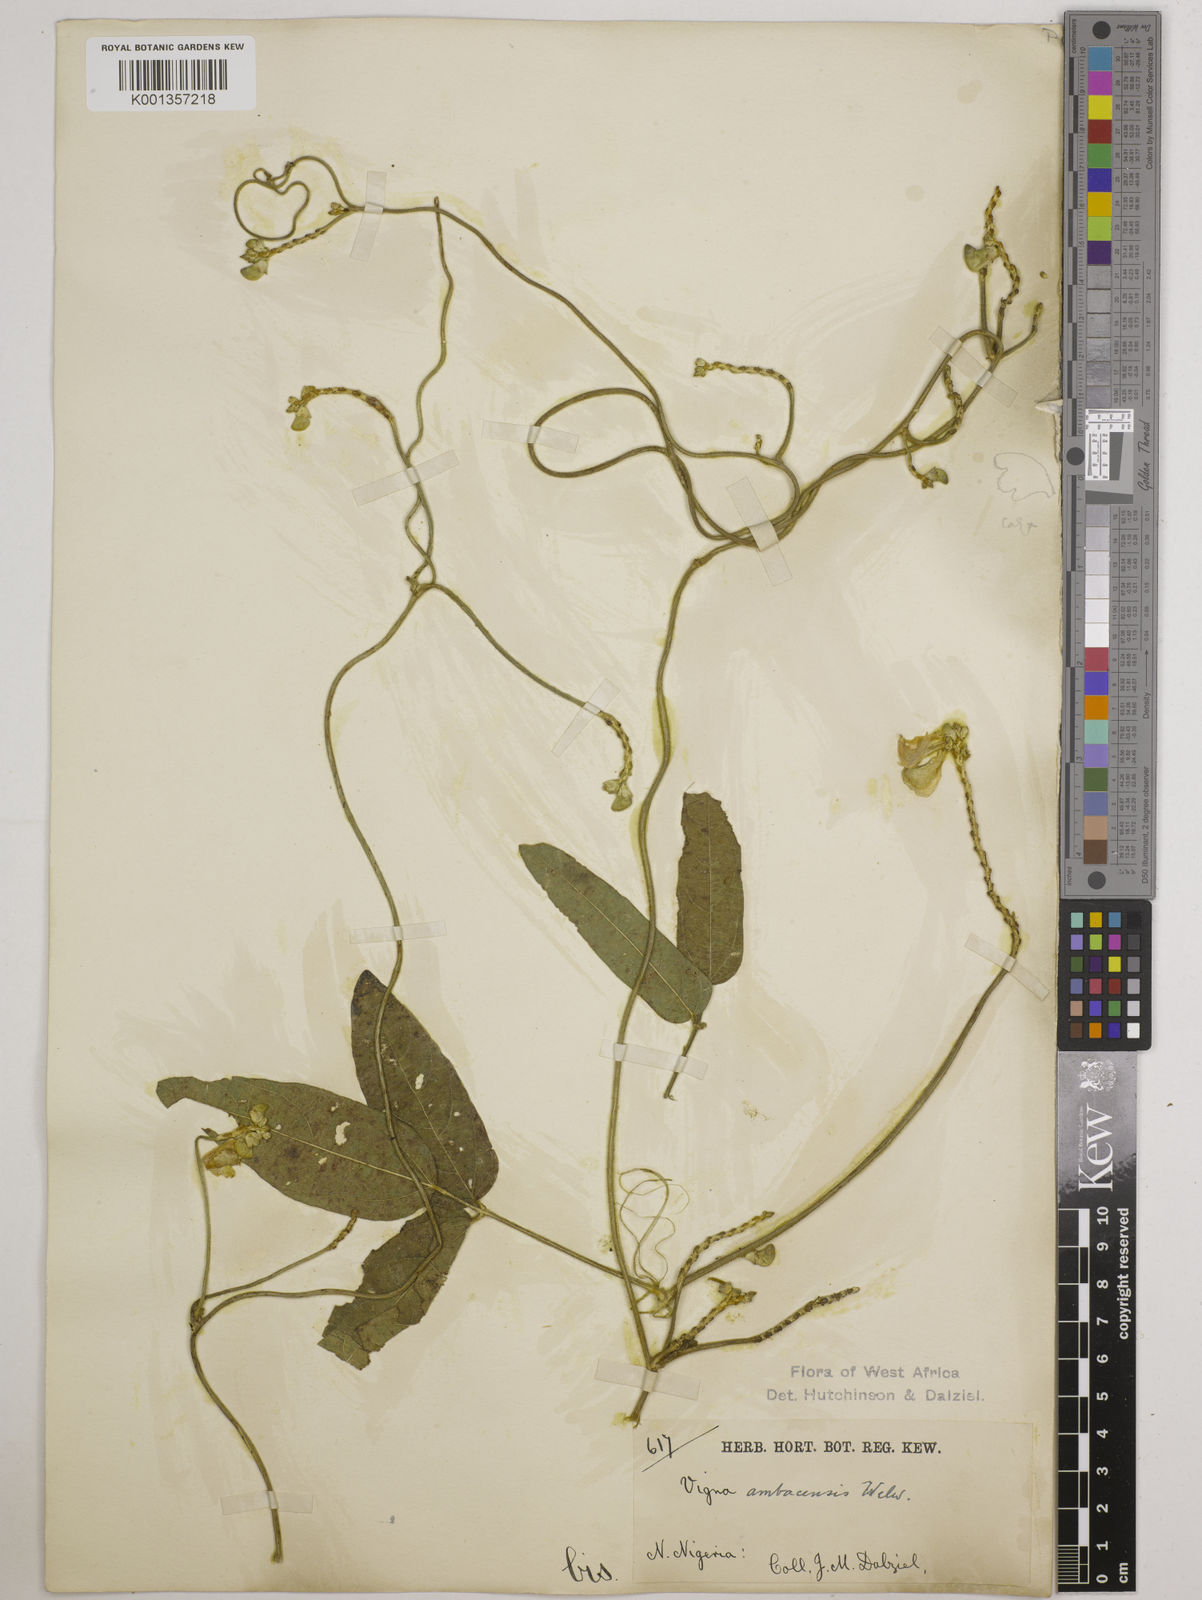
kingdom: Plantae
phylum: Tracheophyta
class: Magnoliopsida
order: Fabales
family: Fabaceae
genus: Vigna
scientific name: Vigna ambacensis
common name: Tsarkiyan zomo
